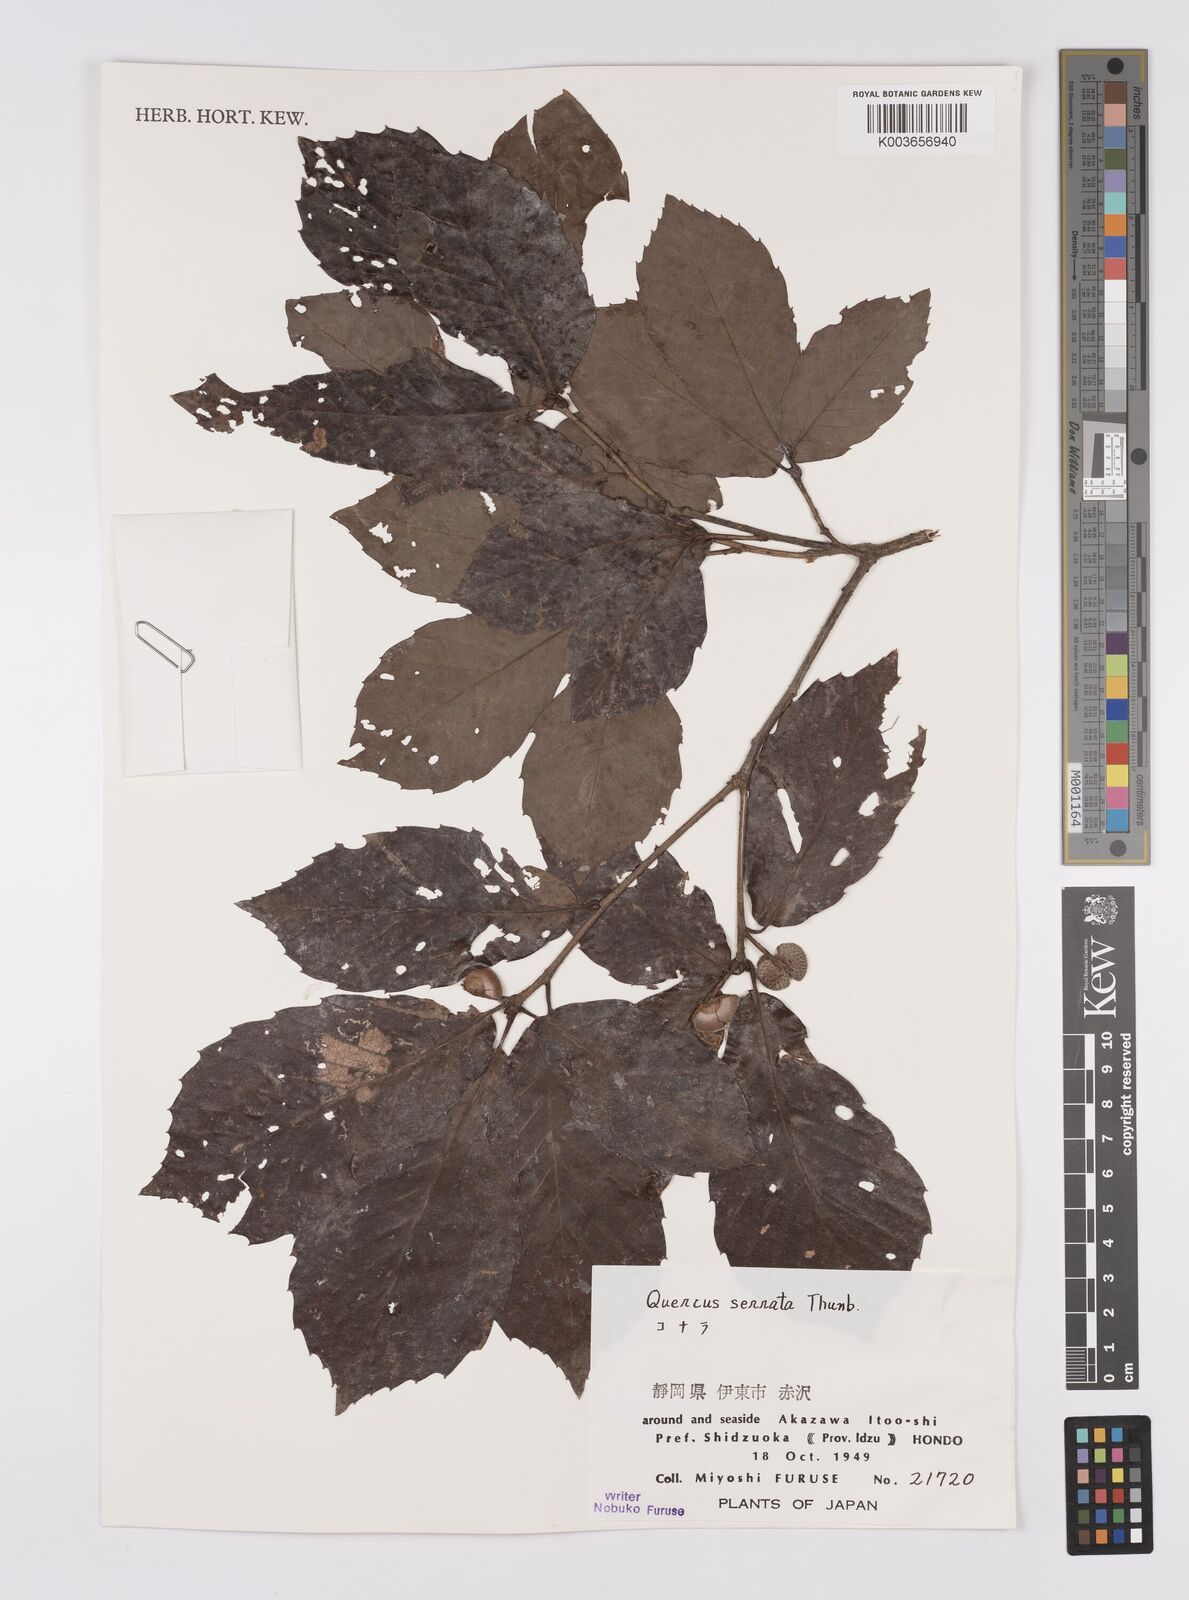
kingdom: Plantae
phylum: Tracheophyta
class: Magnoliopsida
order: Fagales
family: Fagaceae
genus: Quercus
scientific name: Quercus serrata
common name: Bao li
